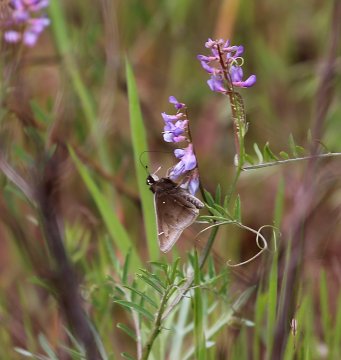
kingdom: Animalia
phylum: Arthropoda
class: Insecta
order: Lepidoptera
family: Hesperiidae
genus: Atrytonopsis
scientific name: Atrytonopsis hianna
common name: Dusted Skipper
